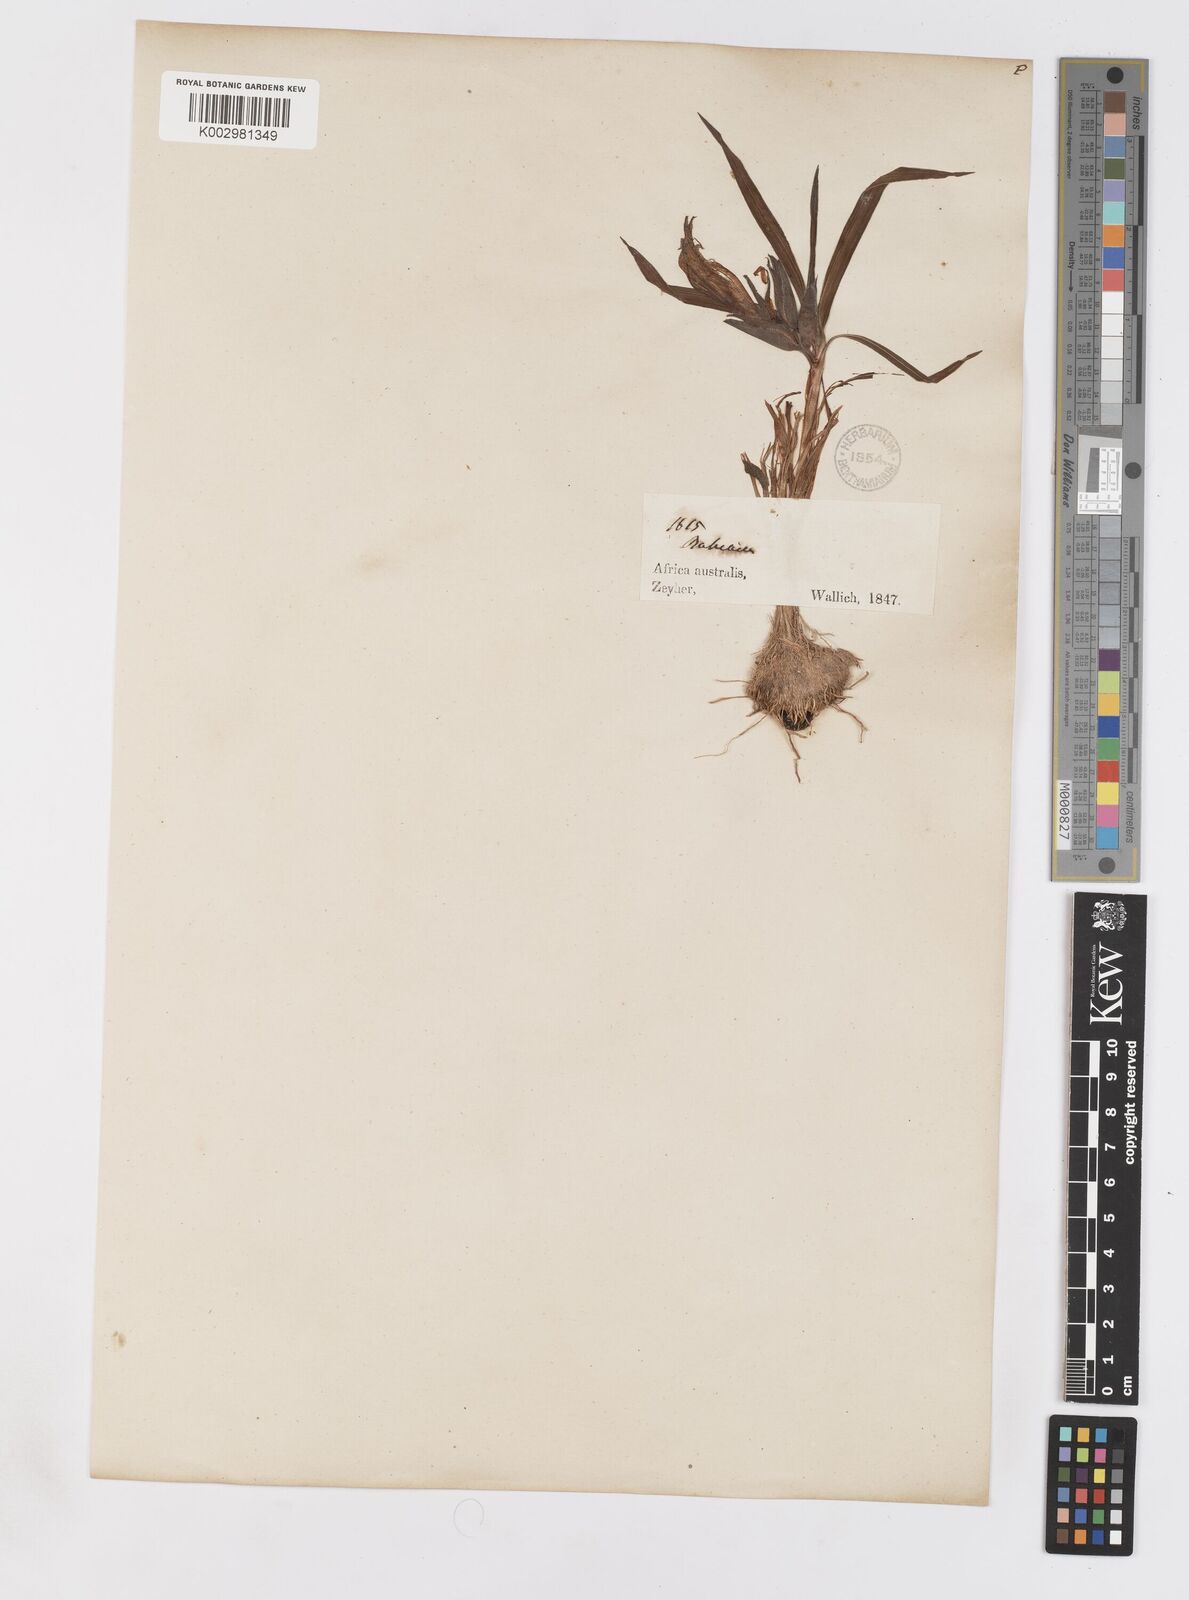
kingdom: Plantae
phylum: Tracheophyta
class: Liliopsida
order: Asparagales
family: Iridaceae
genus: Babiana
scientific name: Babiana
